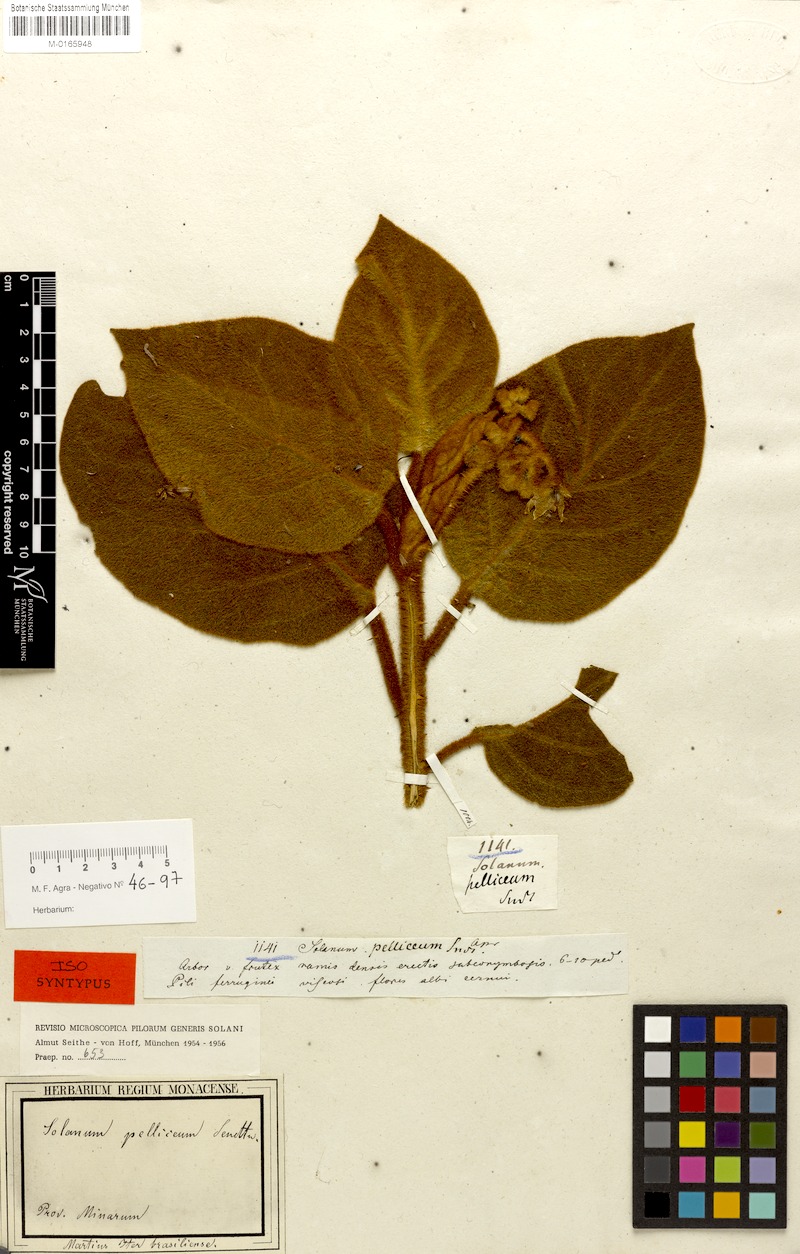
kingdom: Plantae
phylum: Tracheophyta
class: Magnoliopsida
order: Solanales
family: Solanaceae
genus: Solanum
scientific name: Solanum velleum
